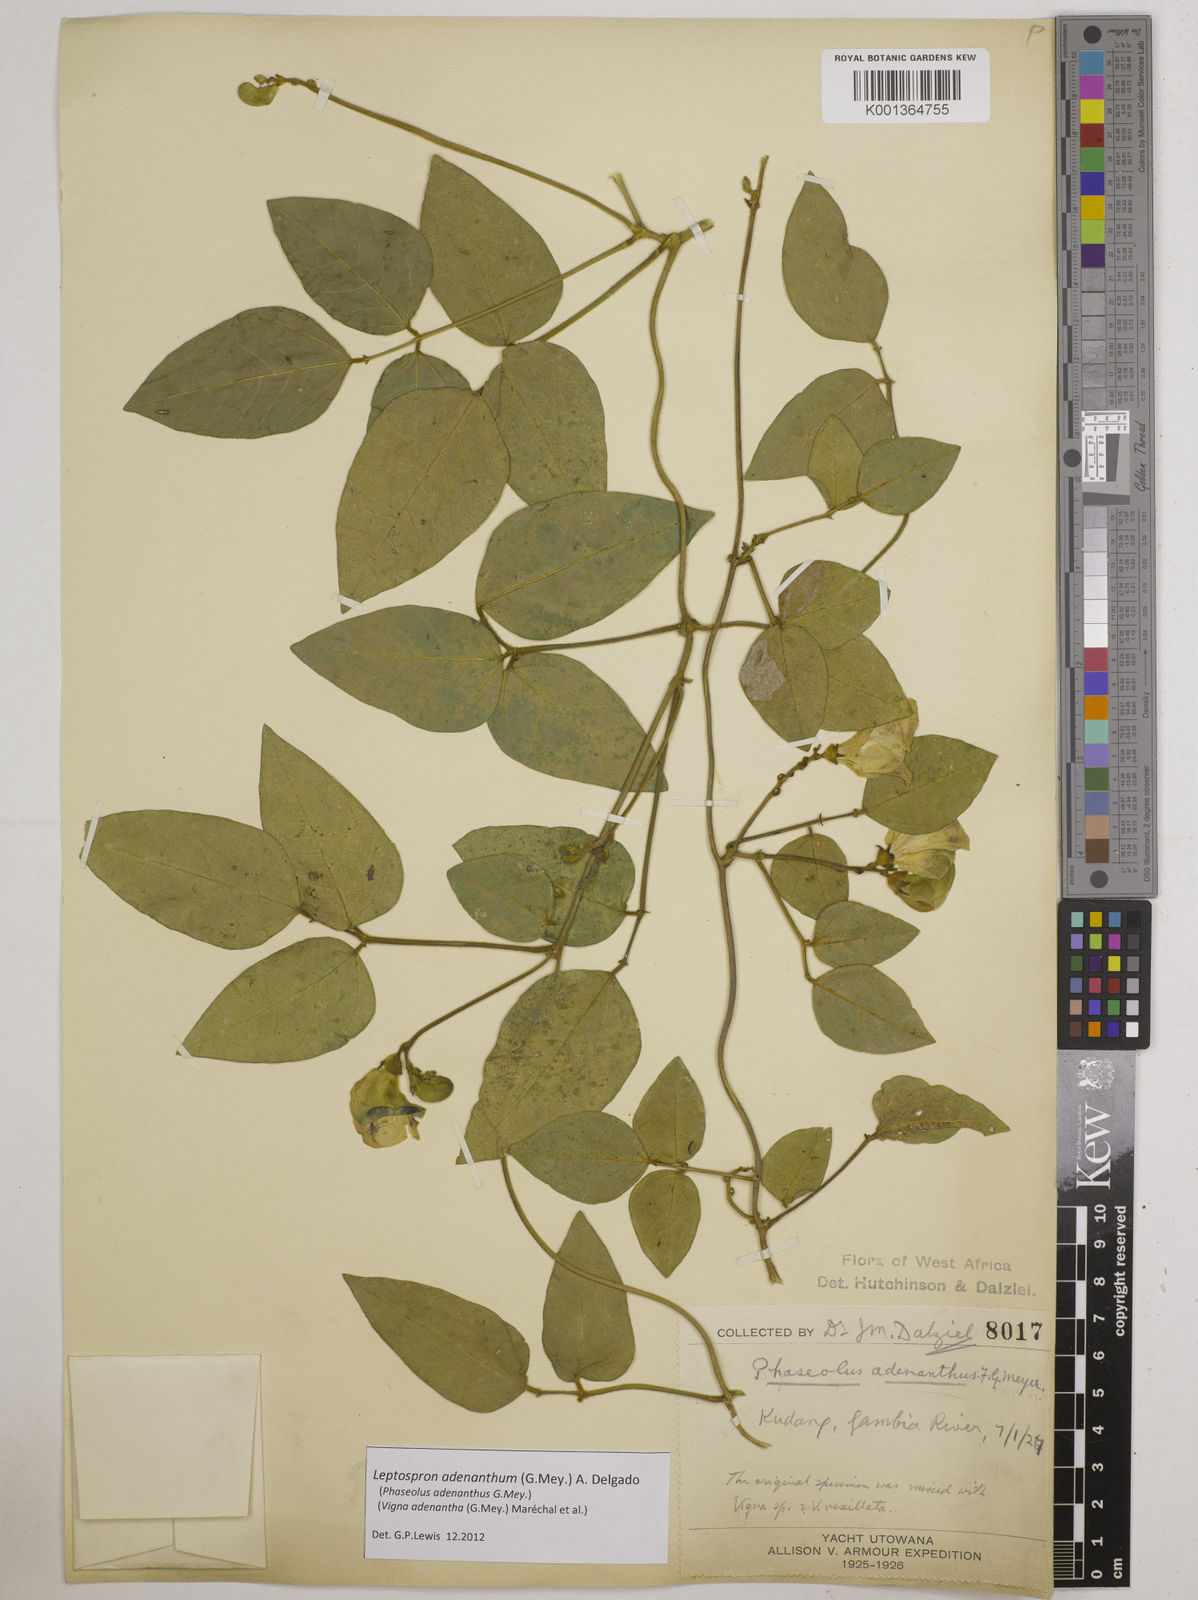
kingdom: Plantae
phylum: Tracheophyta
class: Magnoliopsida
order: Fabales
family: Fabaceae
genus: Leptospron
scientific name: Leptospron adenanthum
